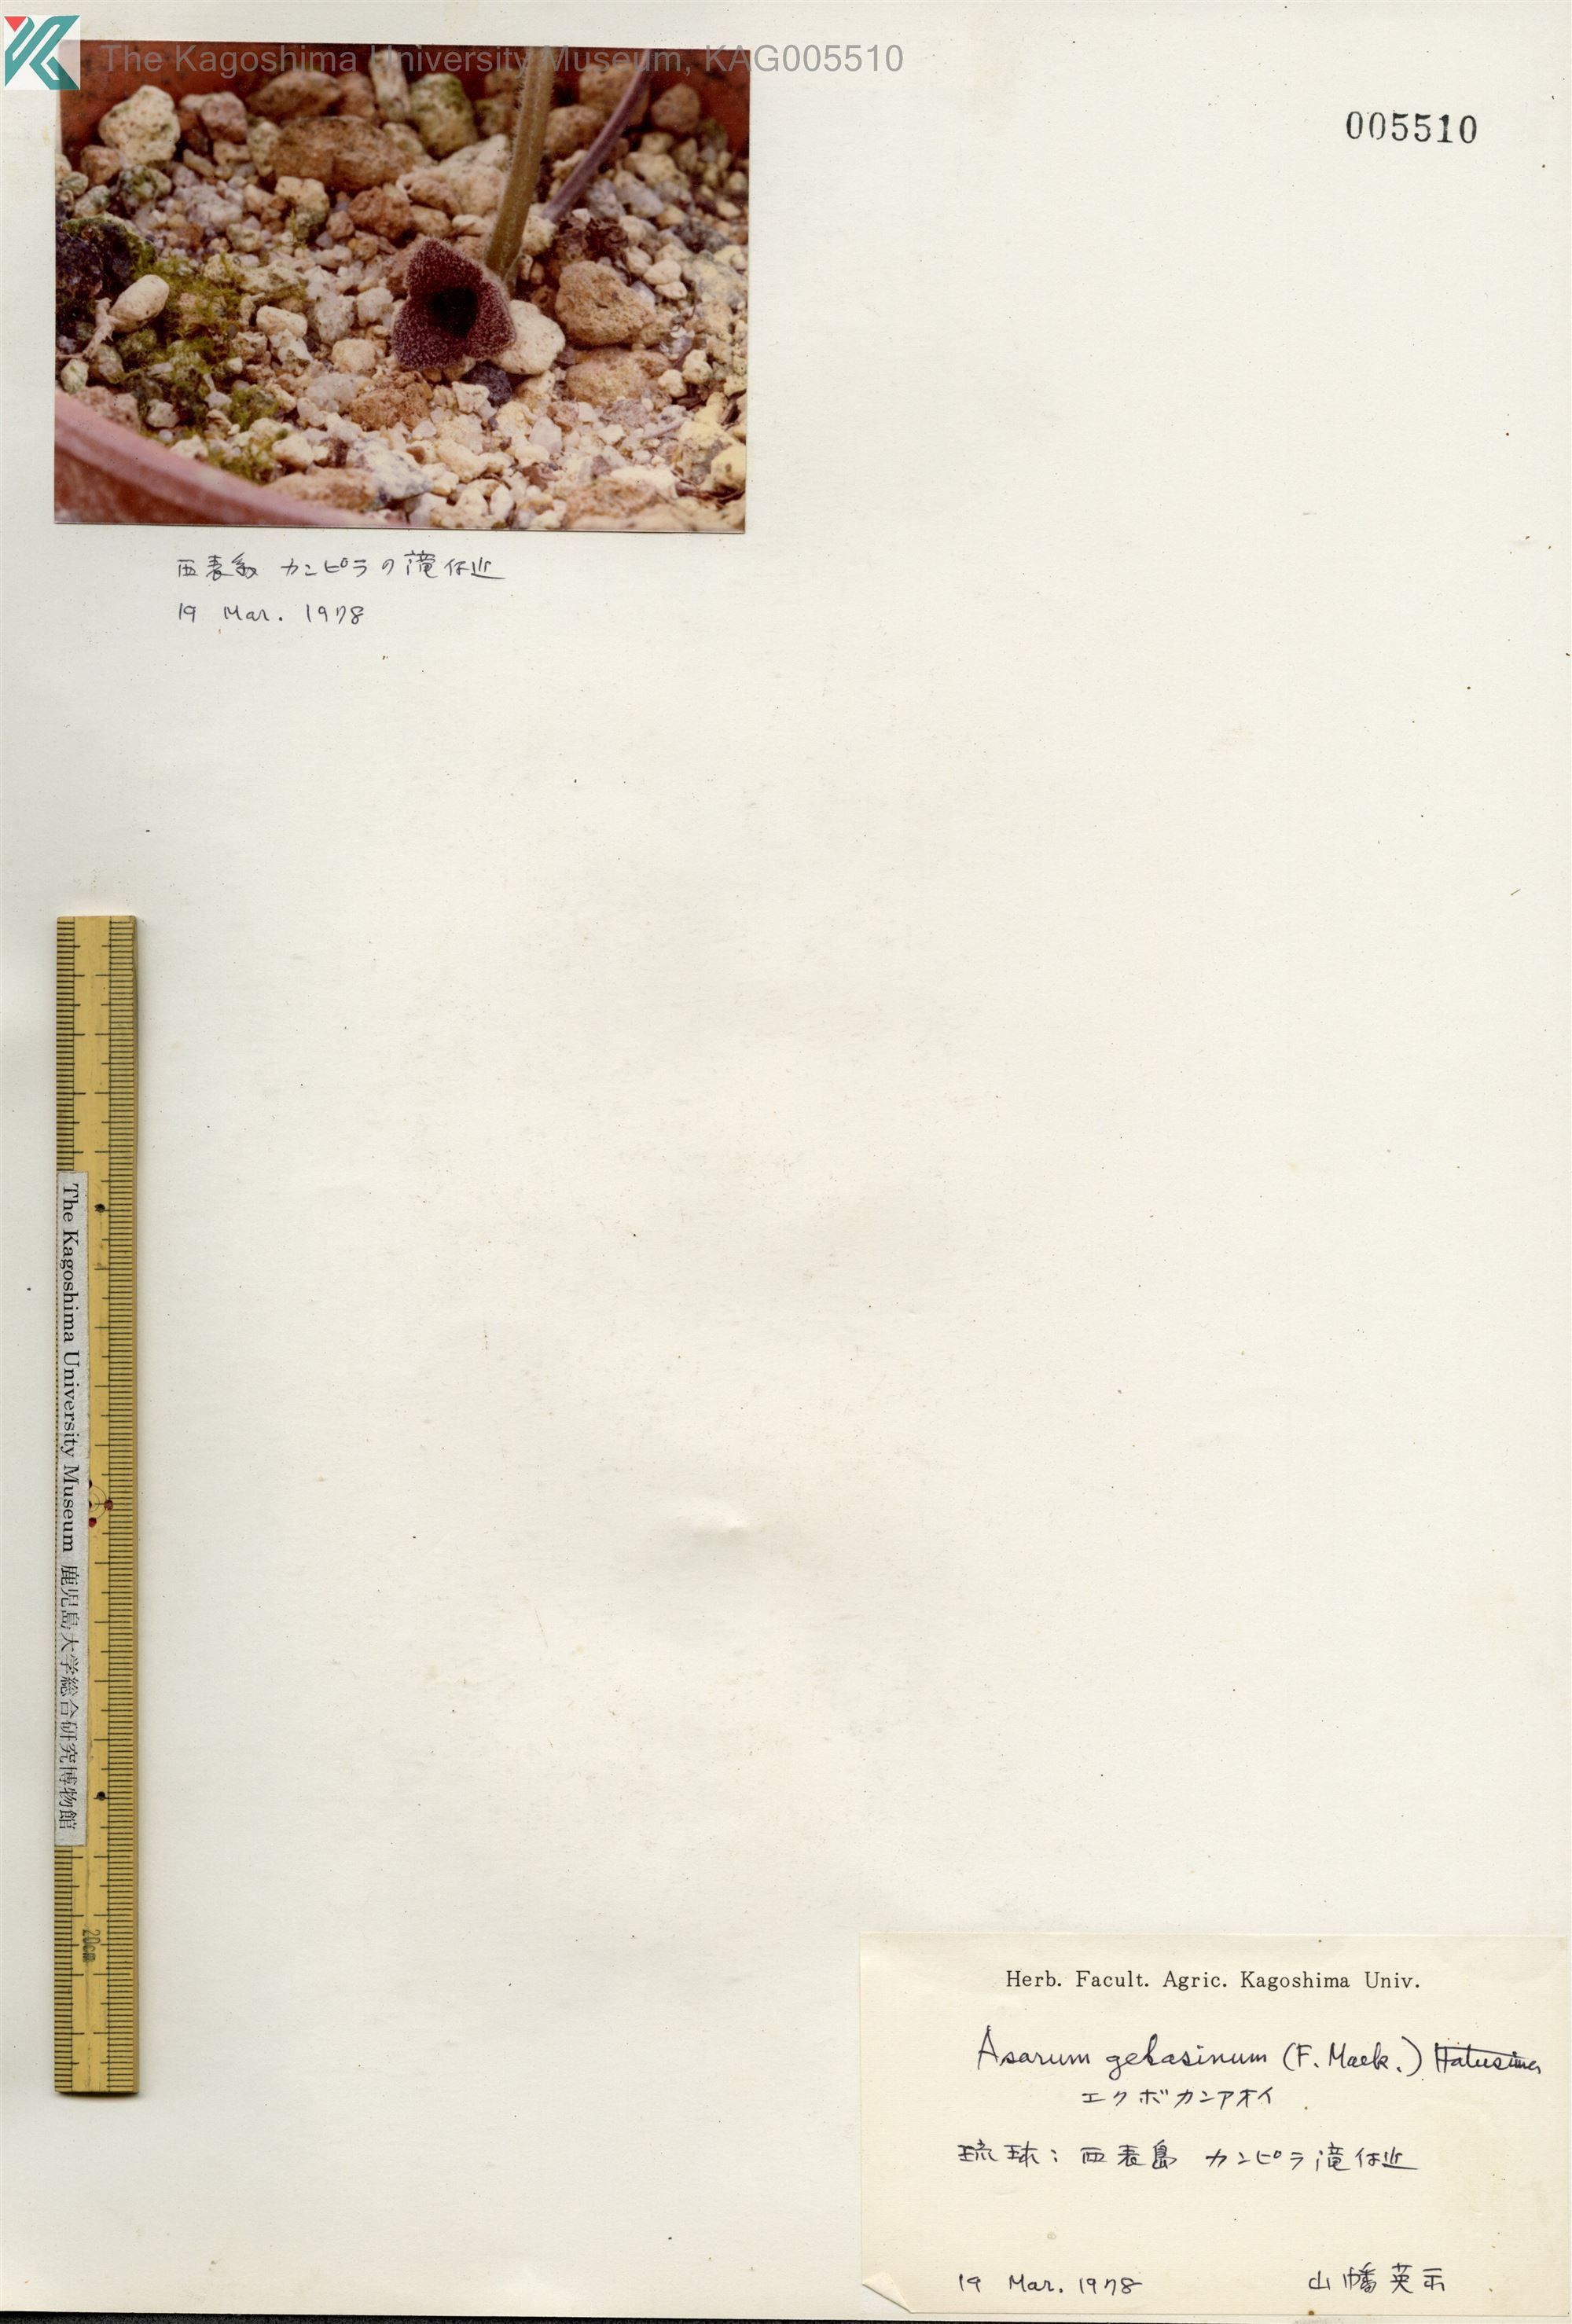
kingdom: Plantae
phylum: Tracheophyta
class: Magnoliopsida
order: Piperales
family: Aristolochiaceae
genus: Asarum
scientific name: Asarum gelasinum
